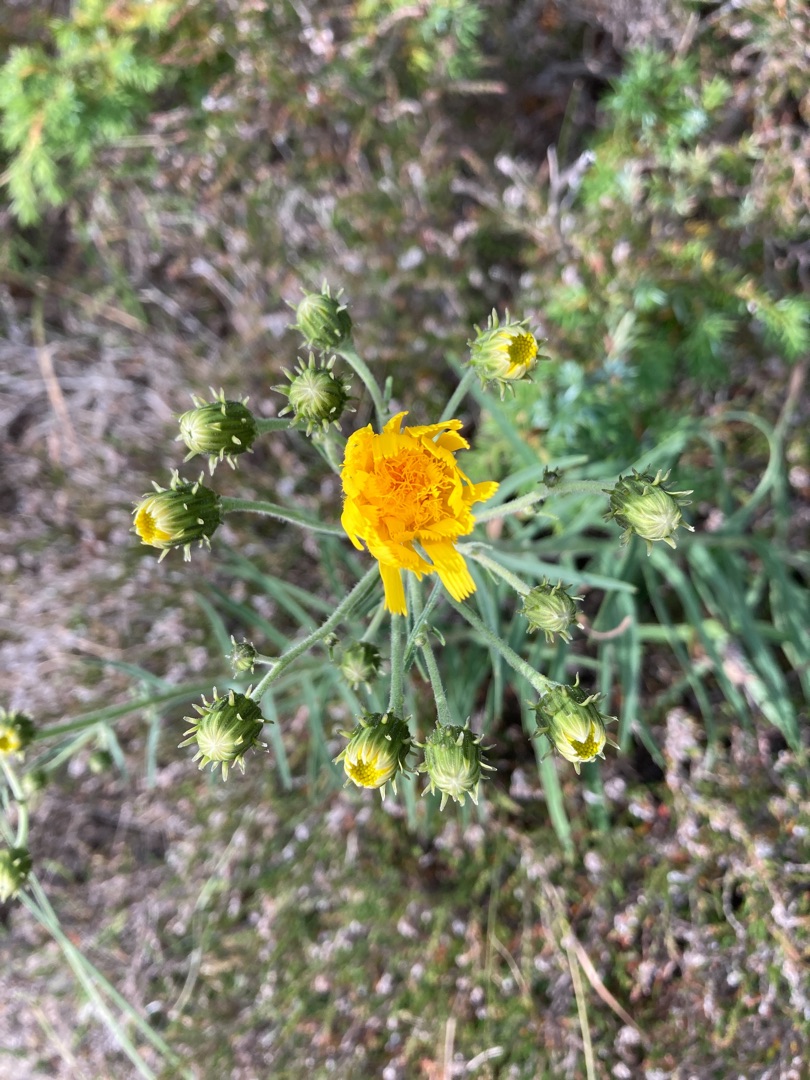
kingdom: Plantae
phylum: Tracheophyta
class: Magnoliopsida
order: Asterales
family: Asteraceae
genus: Hieracium
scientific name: Hieracium umbellatum
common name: Smalbladet høgeurt
